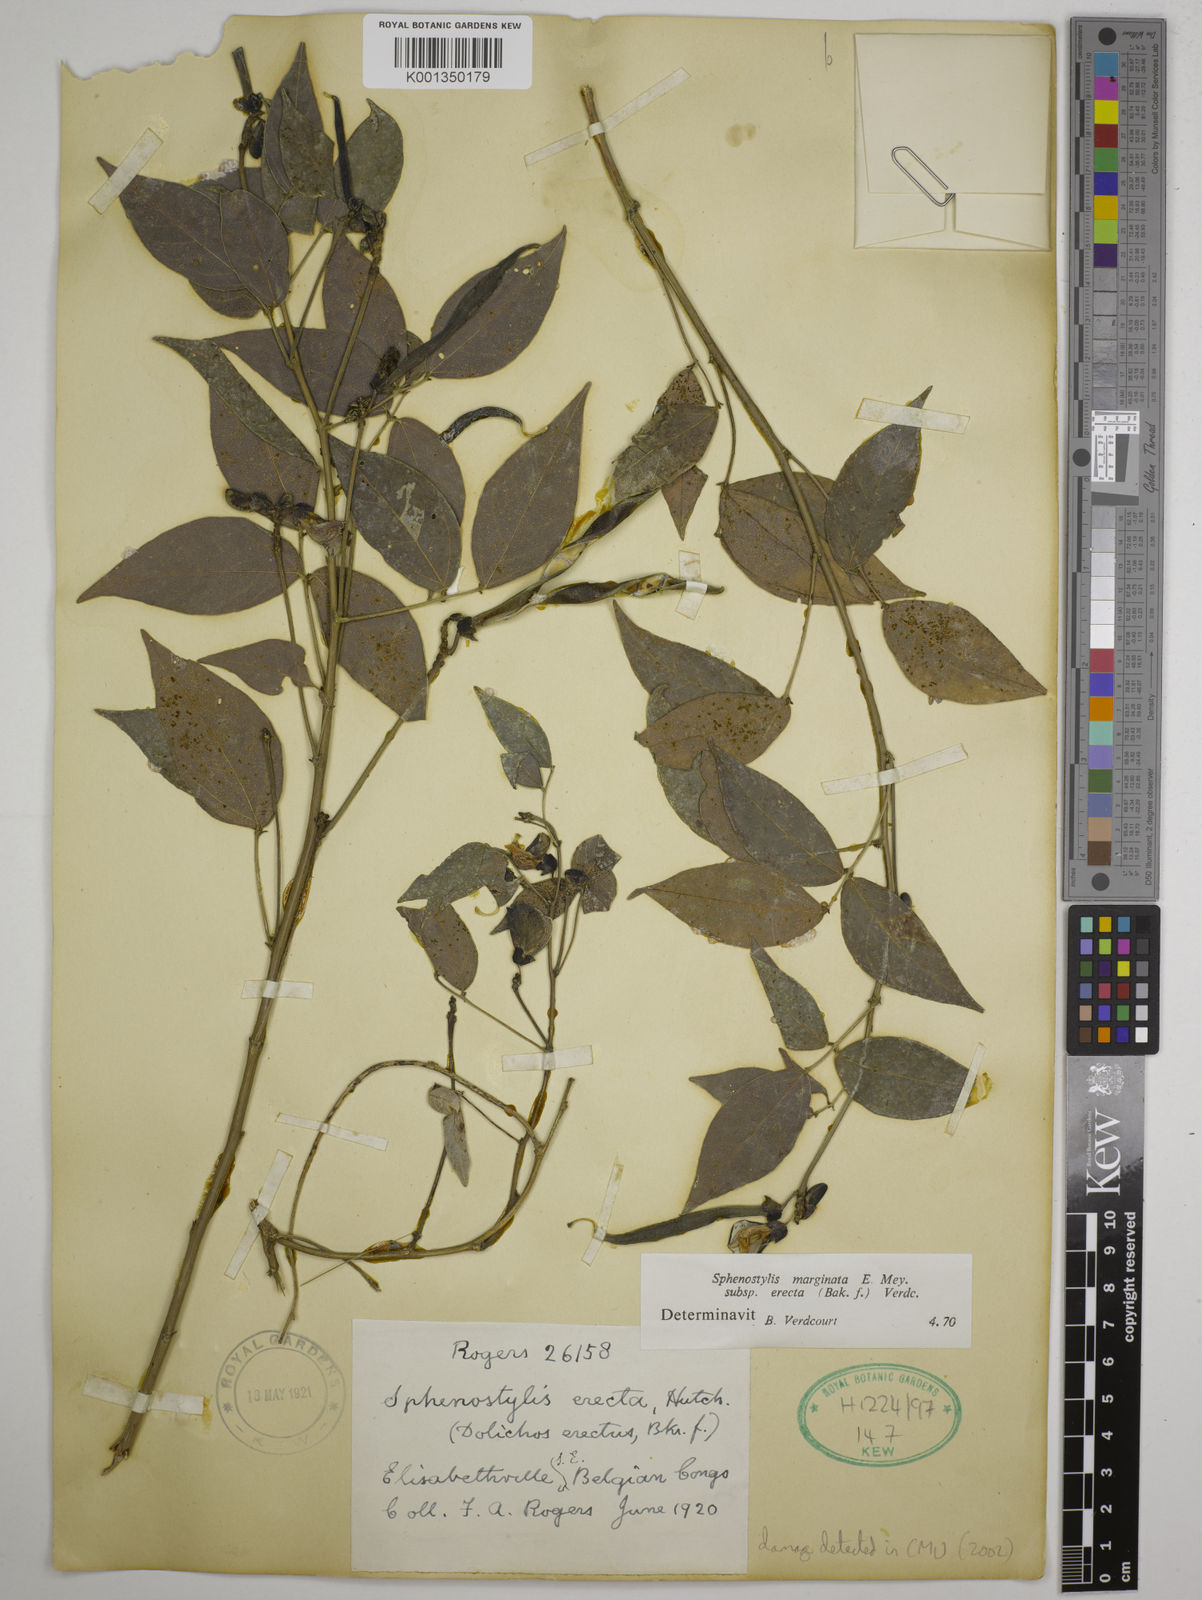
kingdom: Plantae
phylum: Tracheophyta
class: Magnoliopsida
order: Fabales
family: Fabaceae
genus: Sphenostylis
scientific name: Sphenostylis erecta
